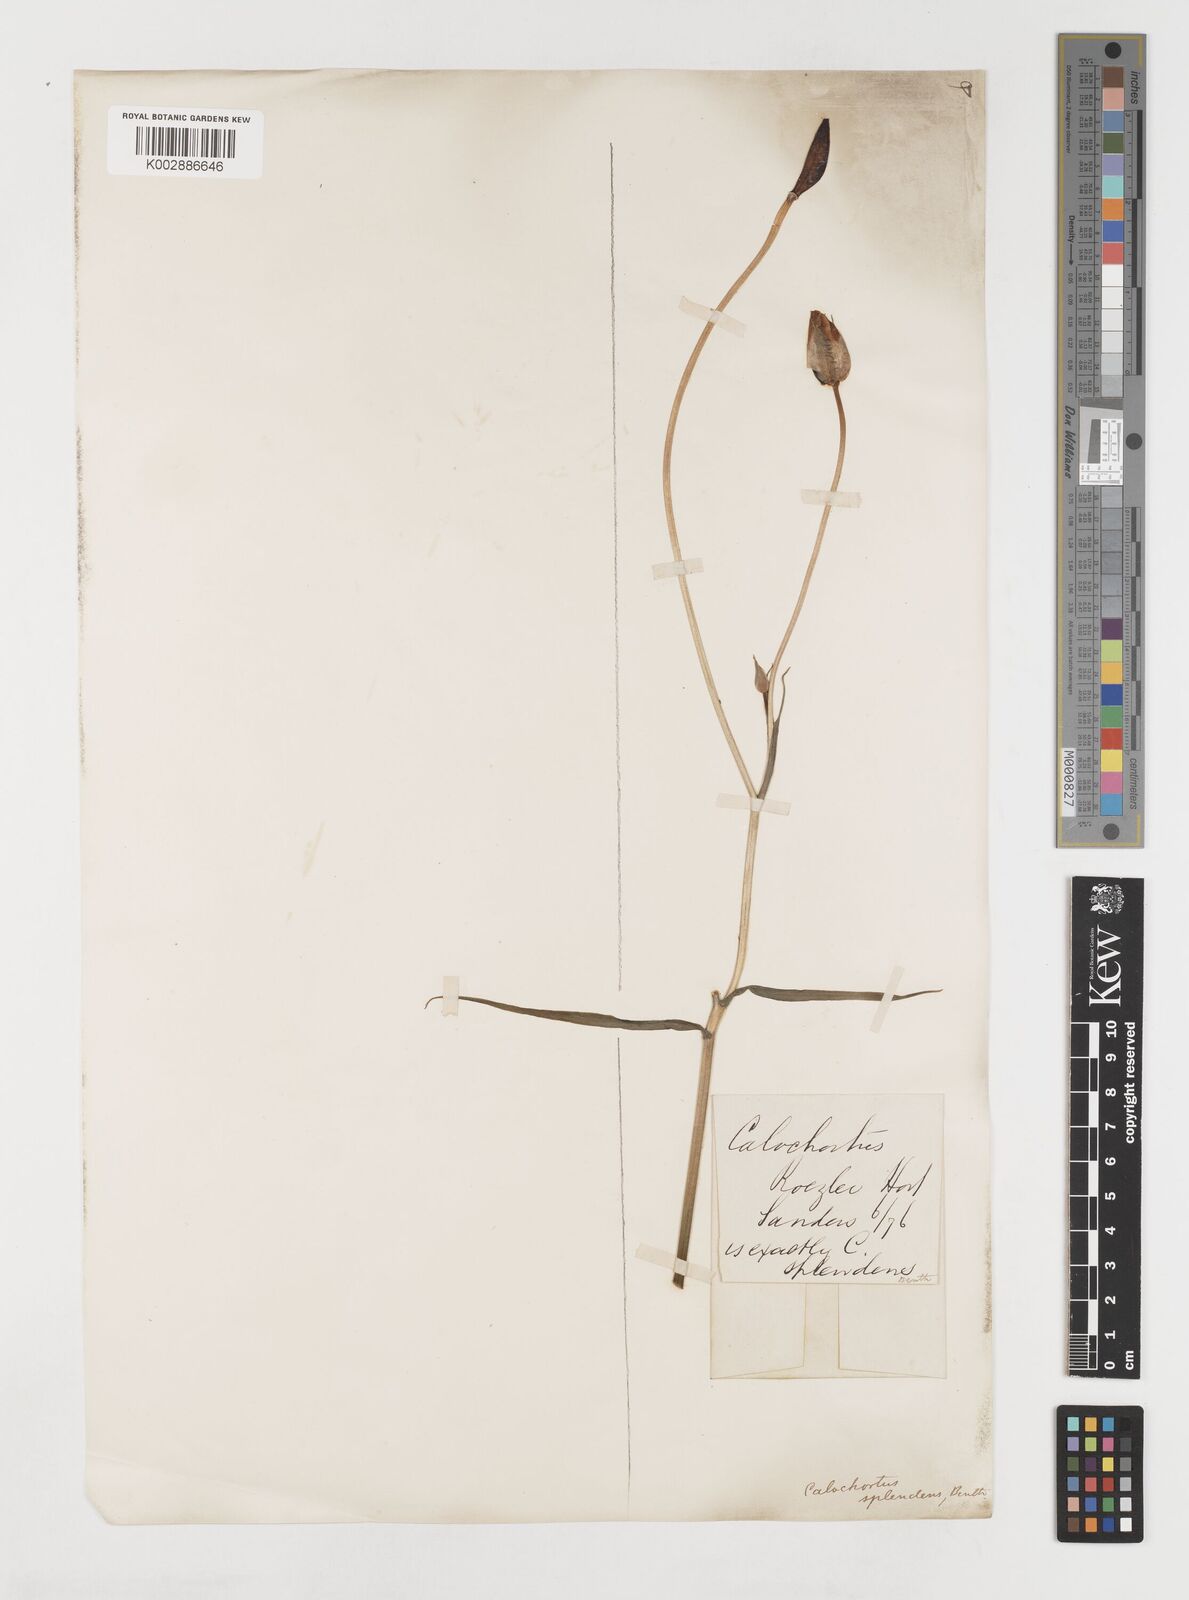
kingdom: Plantae
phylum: Tracheophyta
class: Liliopsida
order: Liliales
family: Liliaceae
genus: Calochortus
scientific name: Calochortus splendens
